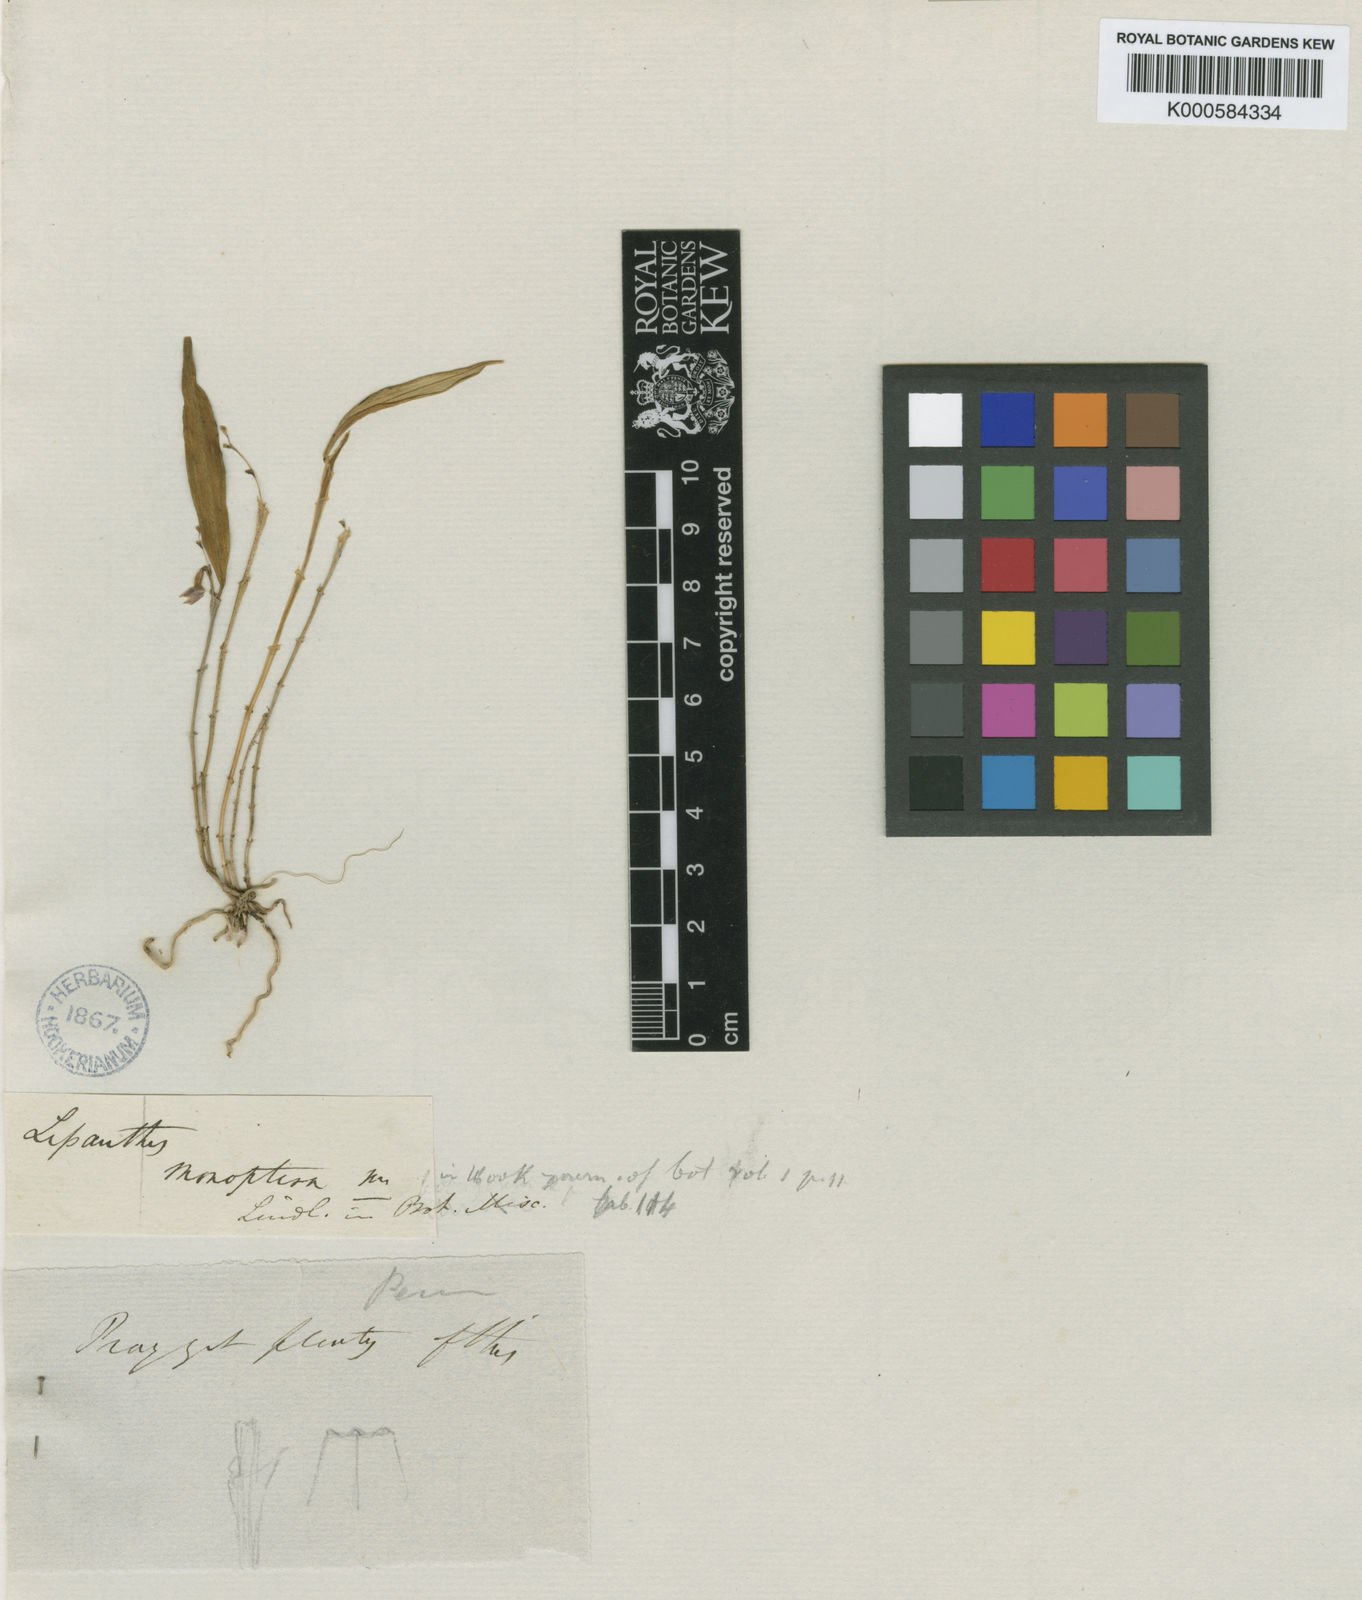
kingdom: Plantae
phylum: Tracheophyta
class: Liliopsida
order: Asparagales
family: Orchidaceae
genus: Lepanthes
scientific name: Lepanthes monoptera
